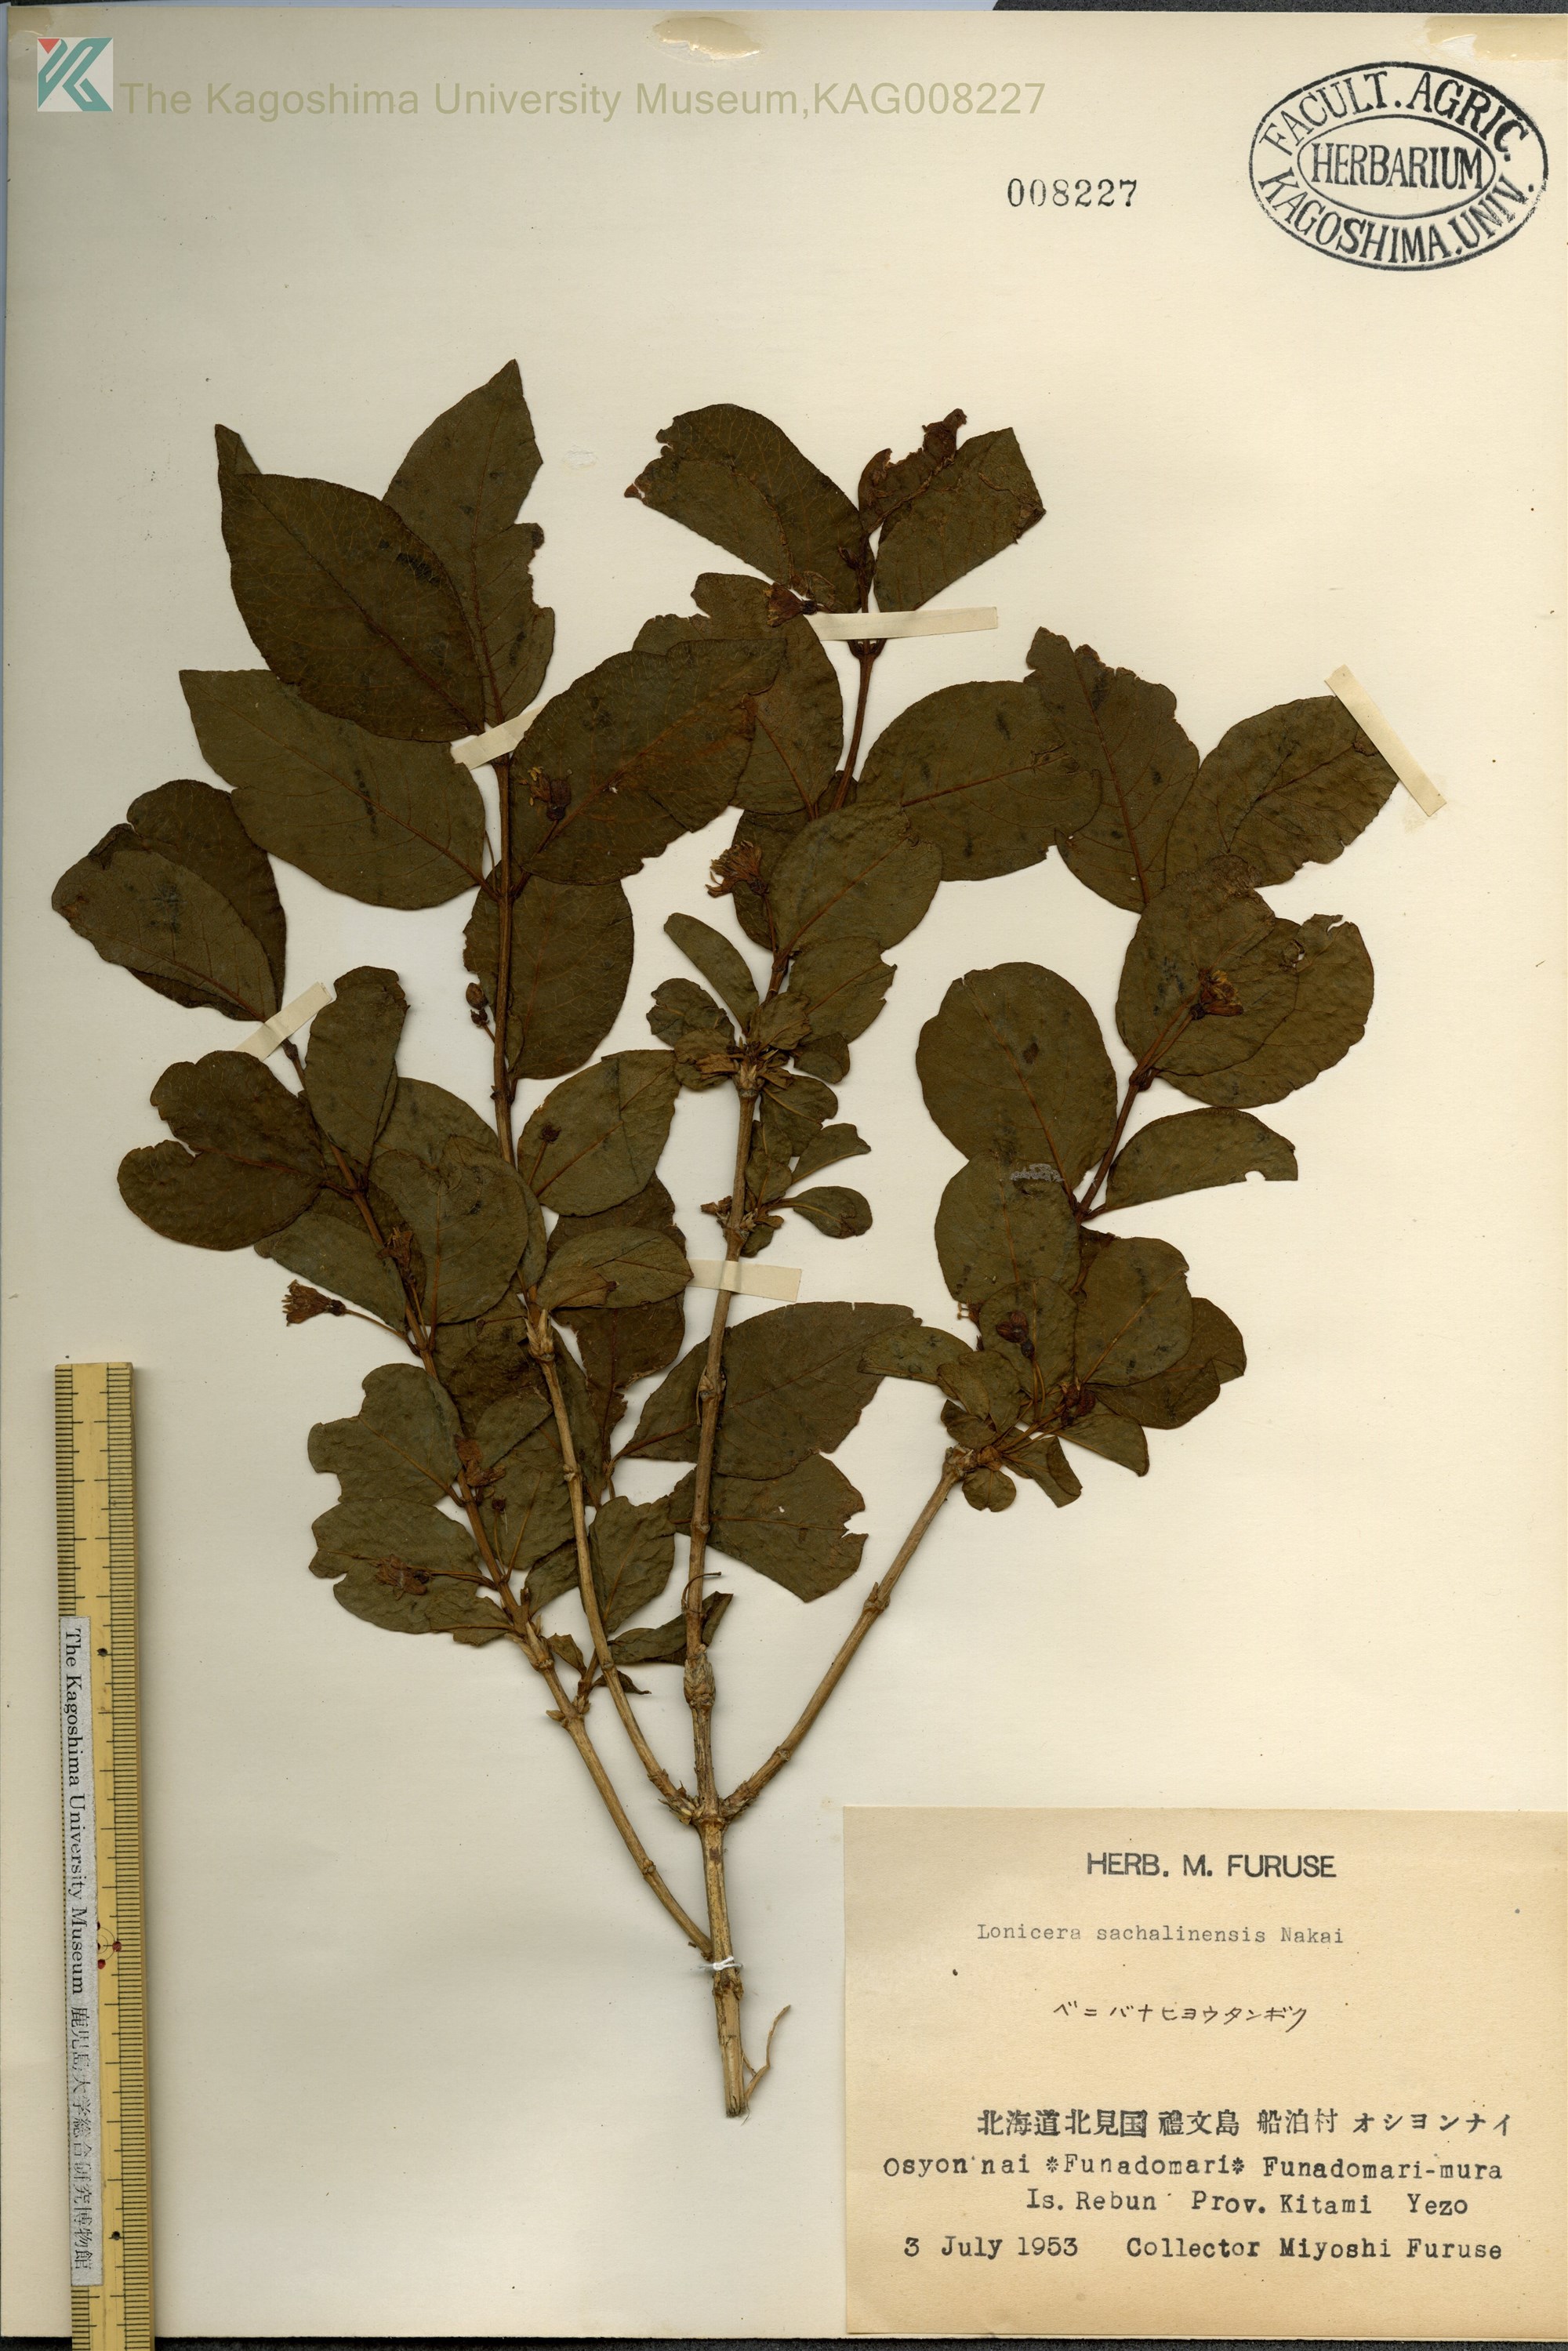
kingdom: Plantae
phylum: Tracheophyta
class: Magnoliopsida
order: Dipsacales
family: Caprifoliaceae
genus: Lonicera
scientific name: Lonicera maximowiczii
